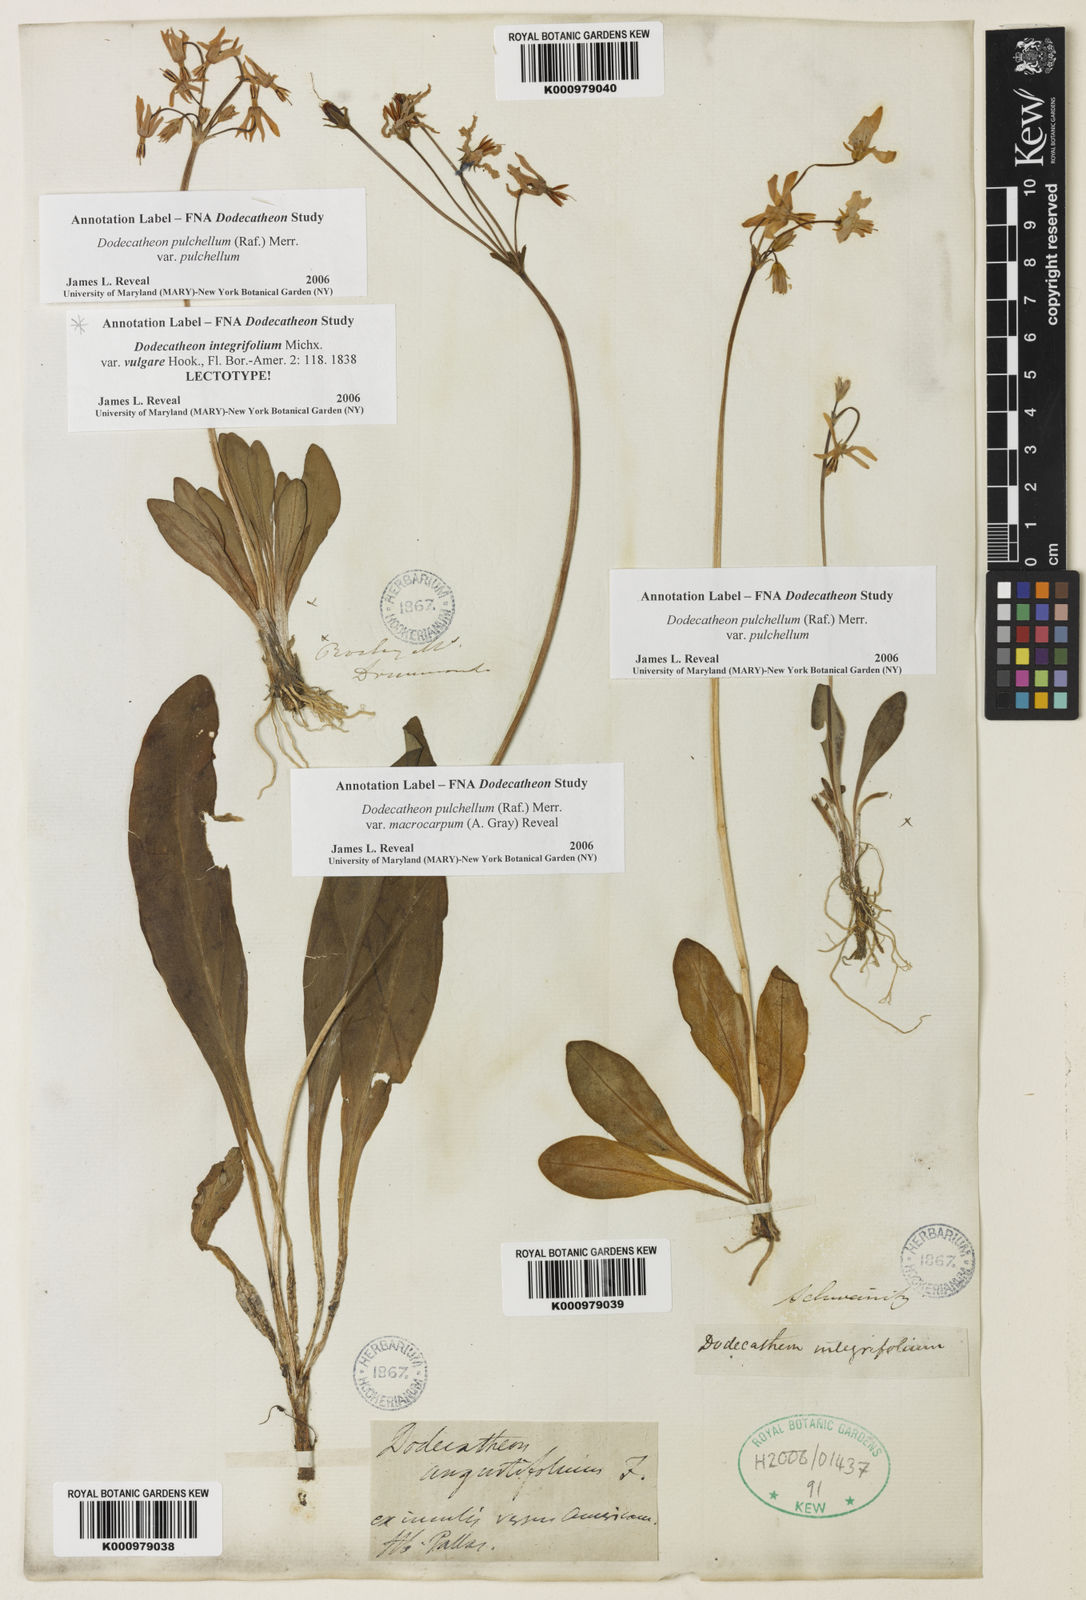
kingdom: Plantae
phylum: Tracheophyta
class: Magnoliopsida
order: Ericales
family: Primulaceae
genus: Dodecatheon
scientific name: Dodecatheon pulchellum
